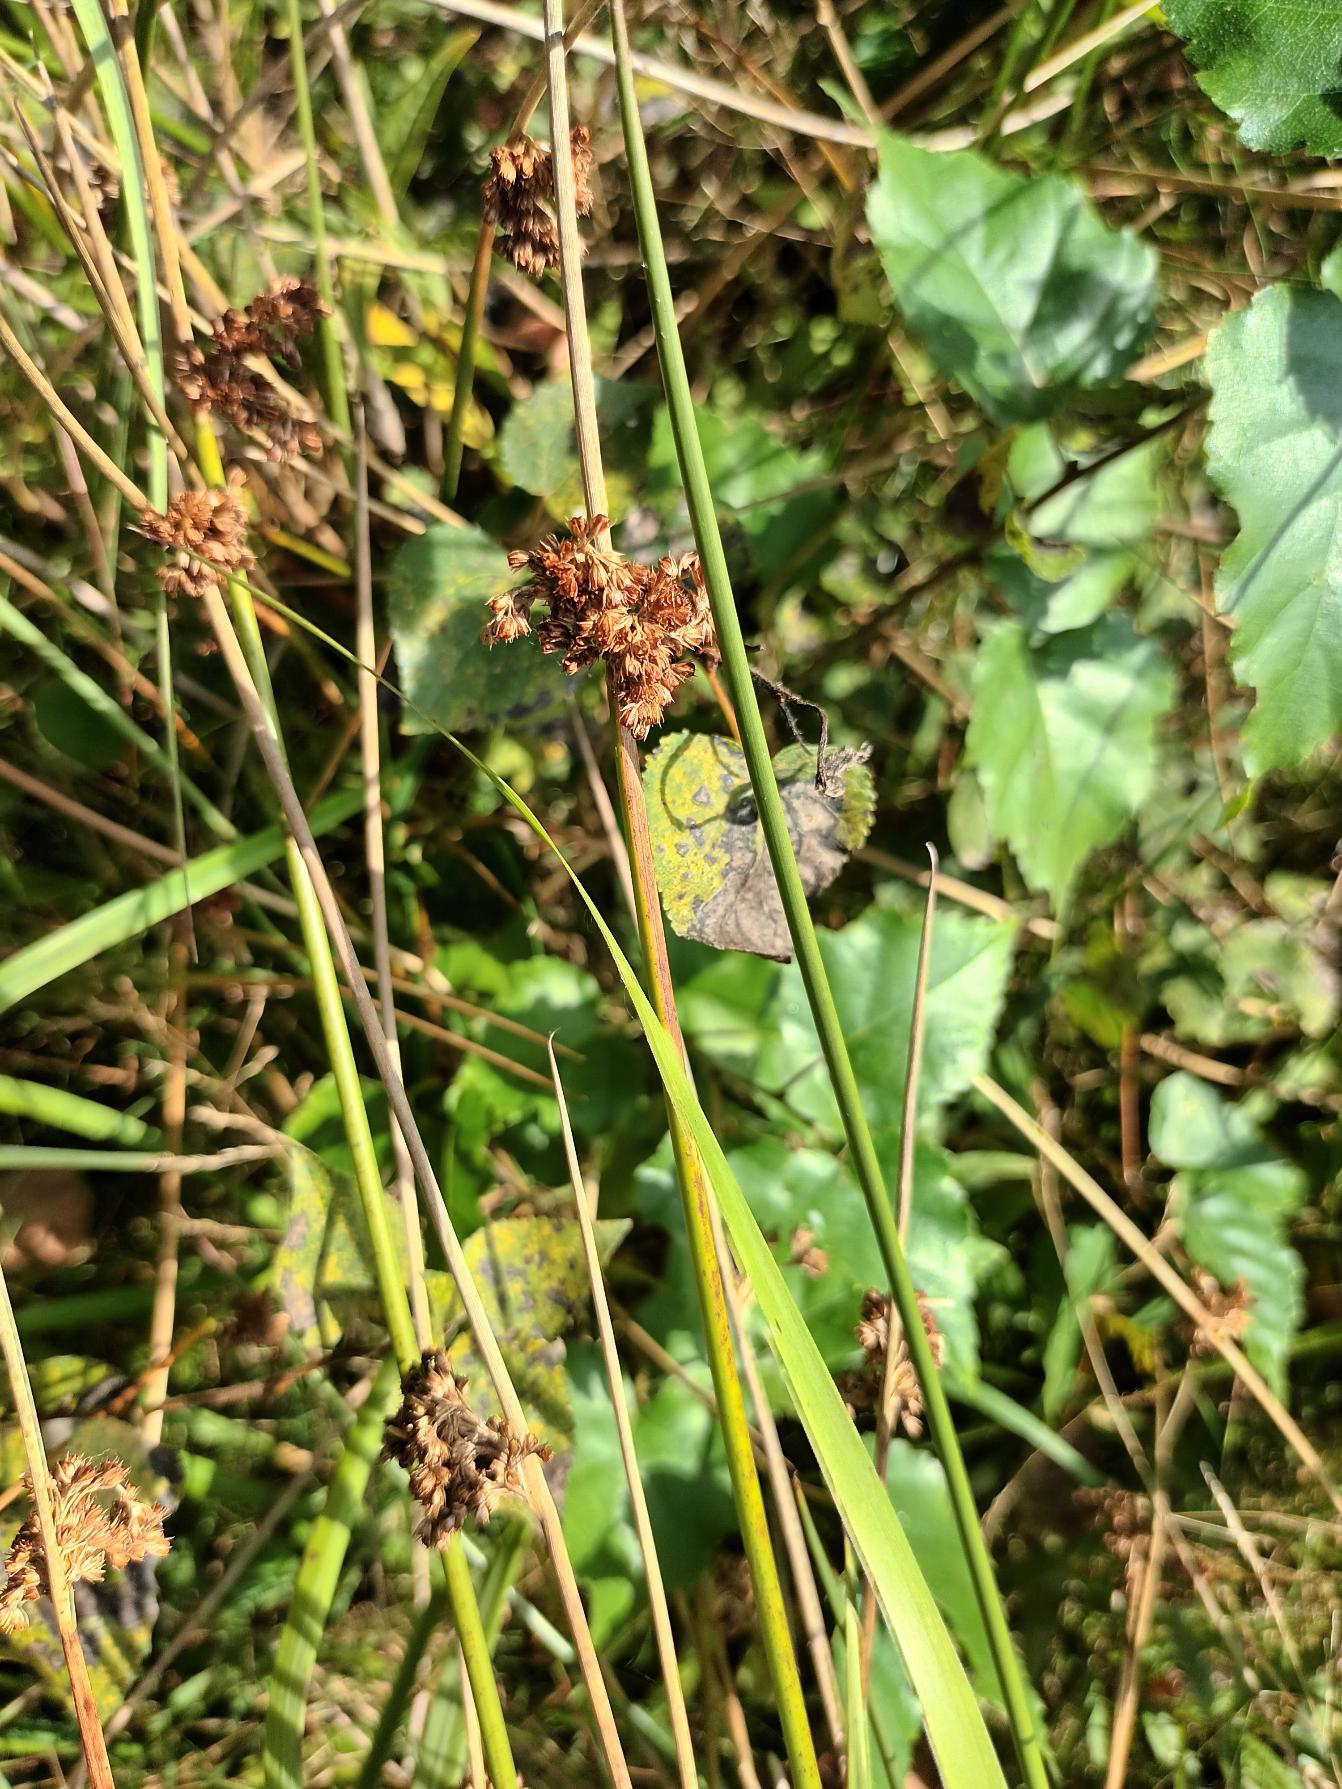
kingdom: Plantae
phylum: Tracheophyta
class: Liliopsida
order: Poales
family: Juncaceae
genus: Juncus
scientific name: Juncus effusus
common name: Lyse-siv
